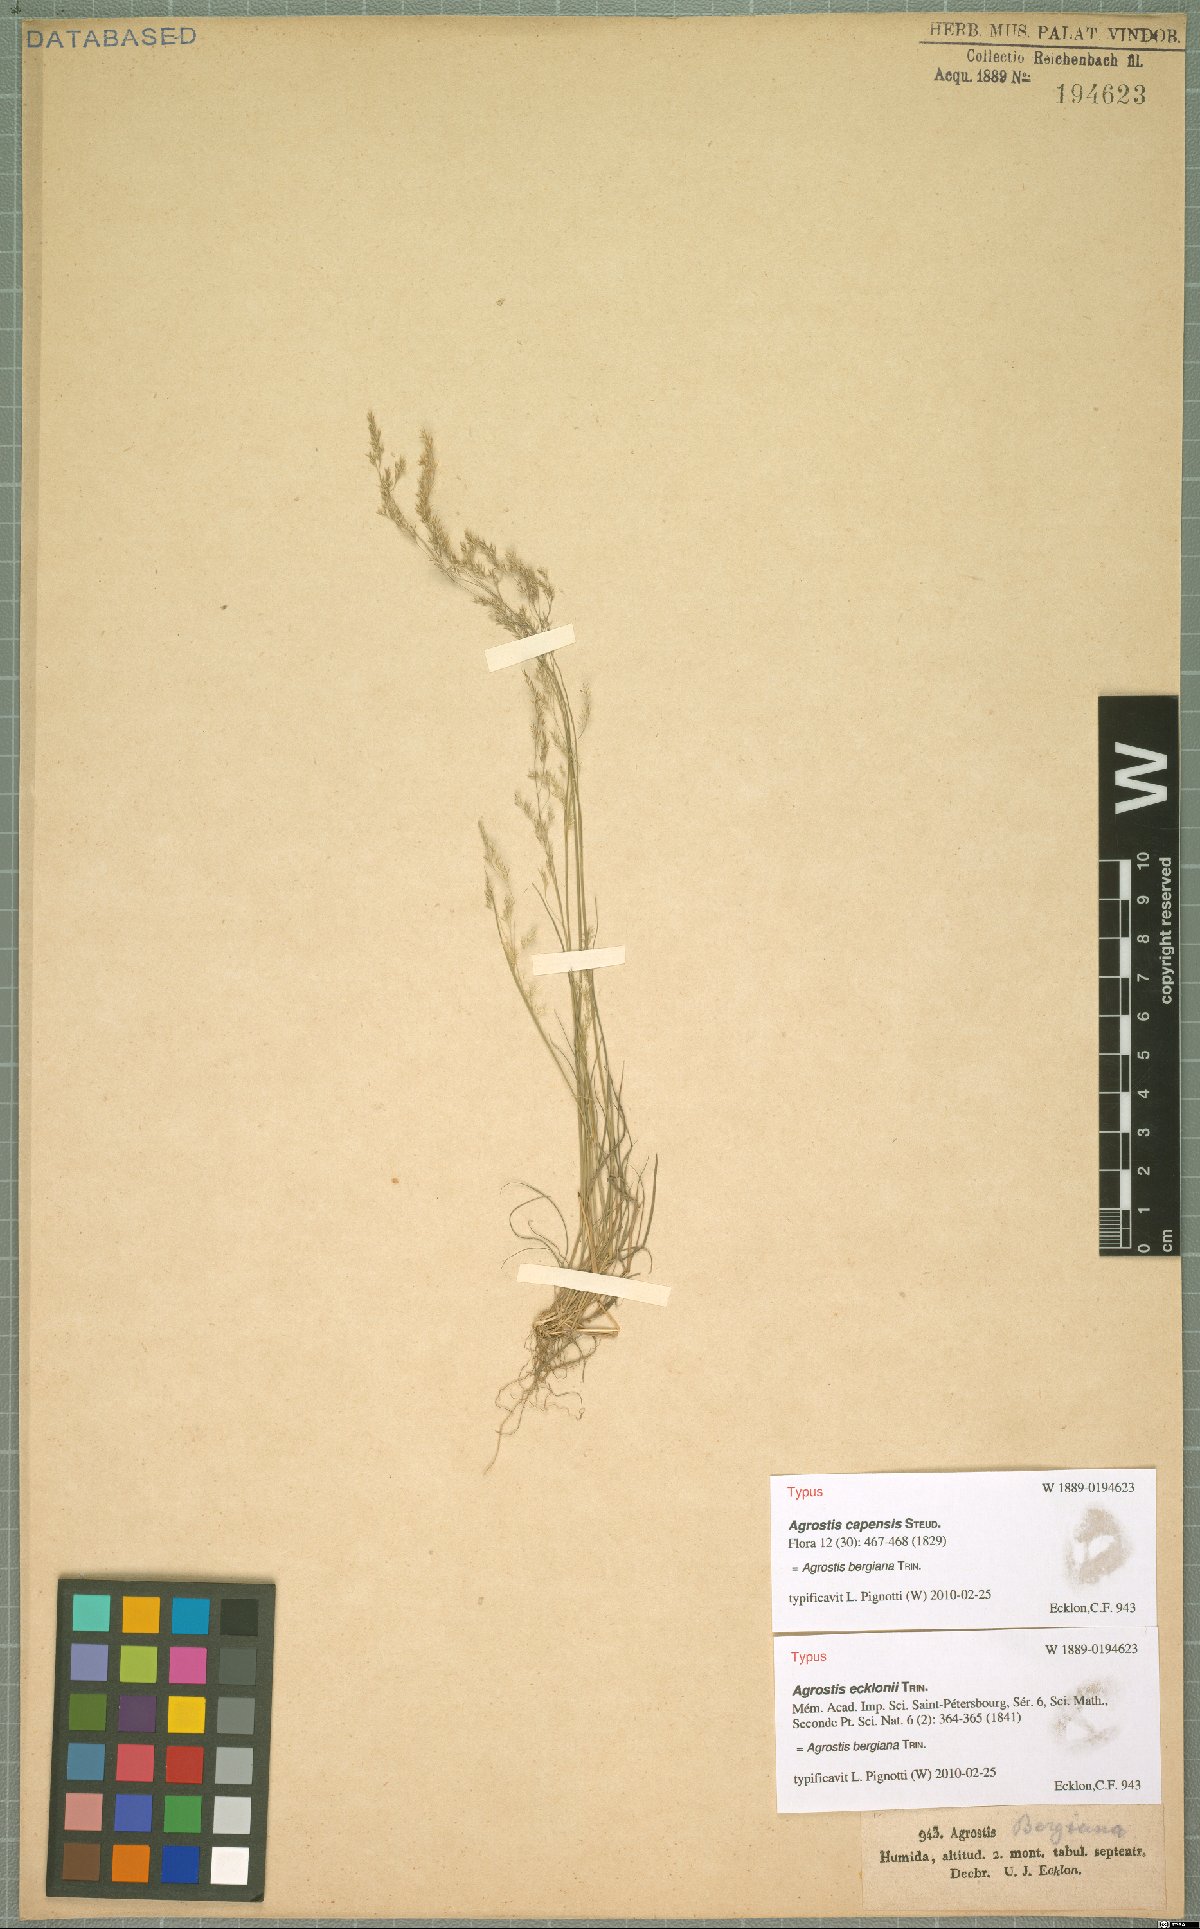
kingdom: Plantae
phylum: Tracheophyta
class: Liliopsida
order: Poales
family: Poaceae
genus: Agrostis
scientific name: Agrostis bergiana
